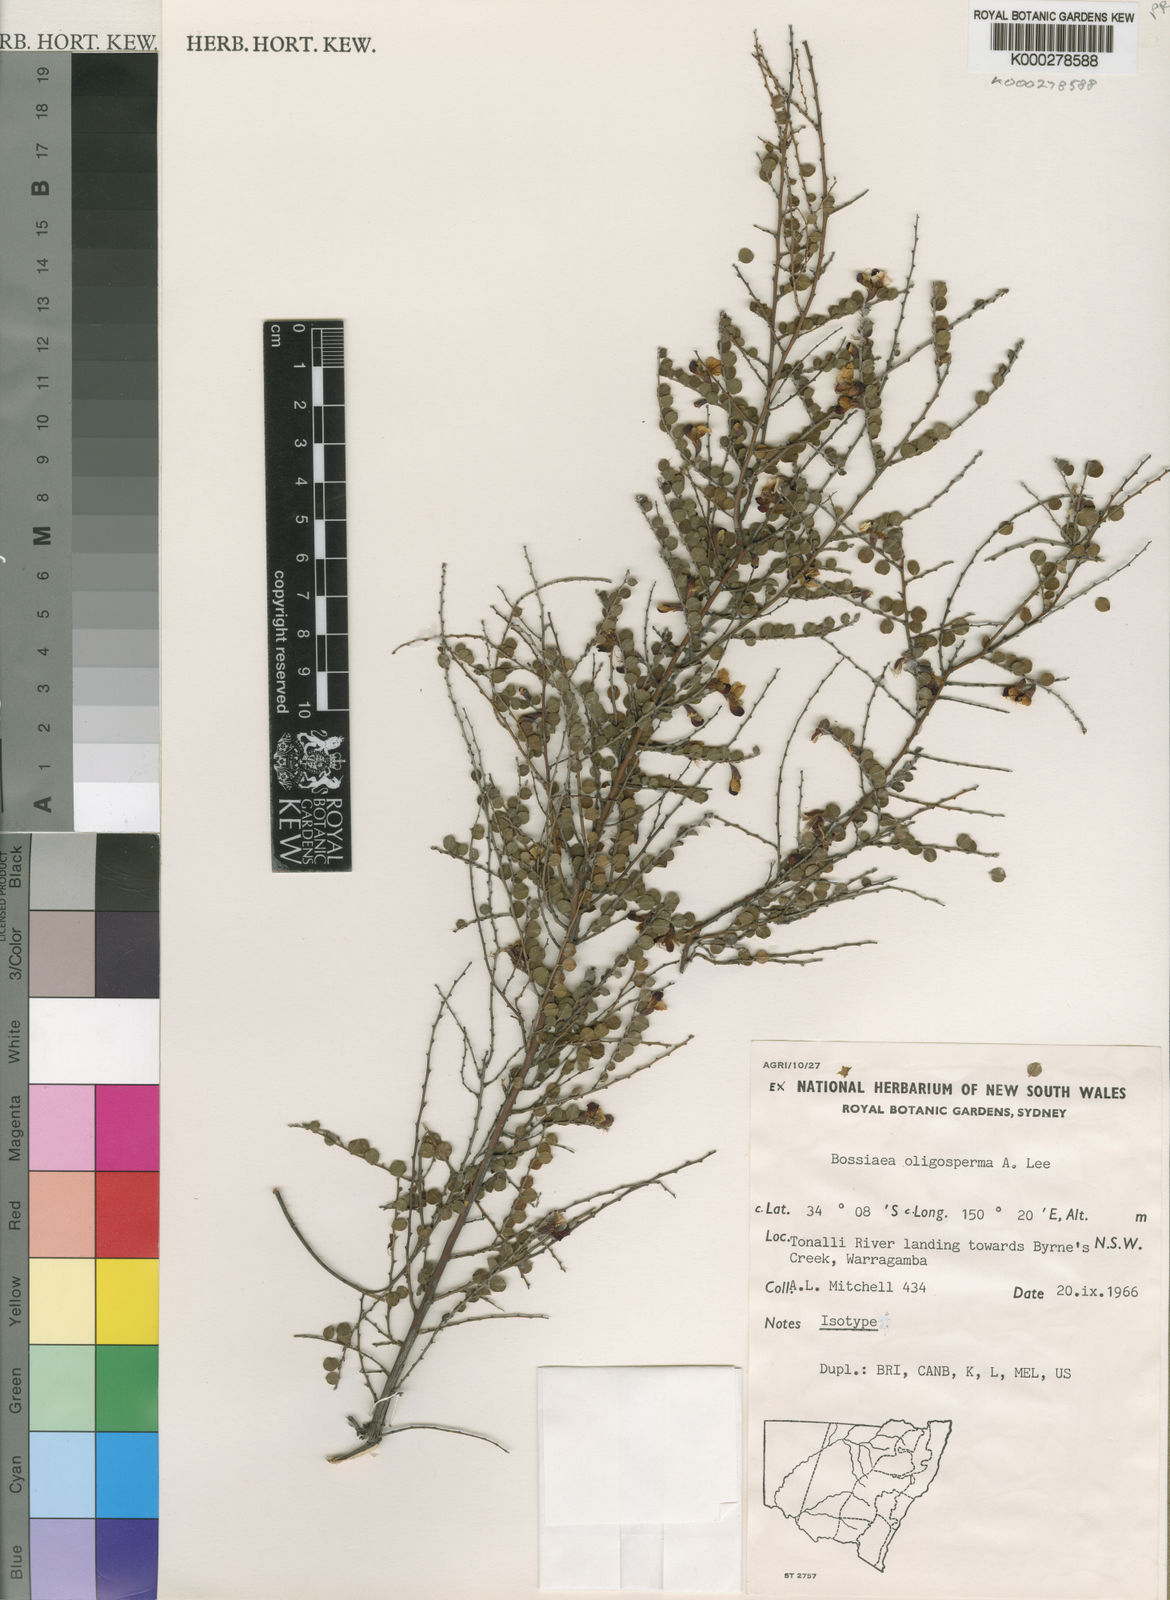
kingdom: Plantae
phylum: Tracheophyta
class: Magnoliopsida
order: Fabales
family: Fabaceae
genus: Bossiaea
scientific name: Bossiaea oligosperma
